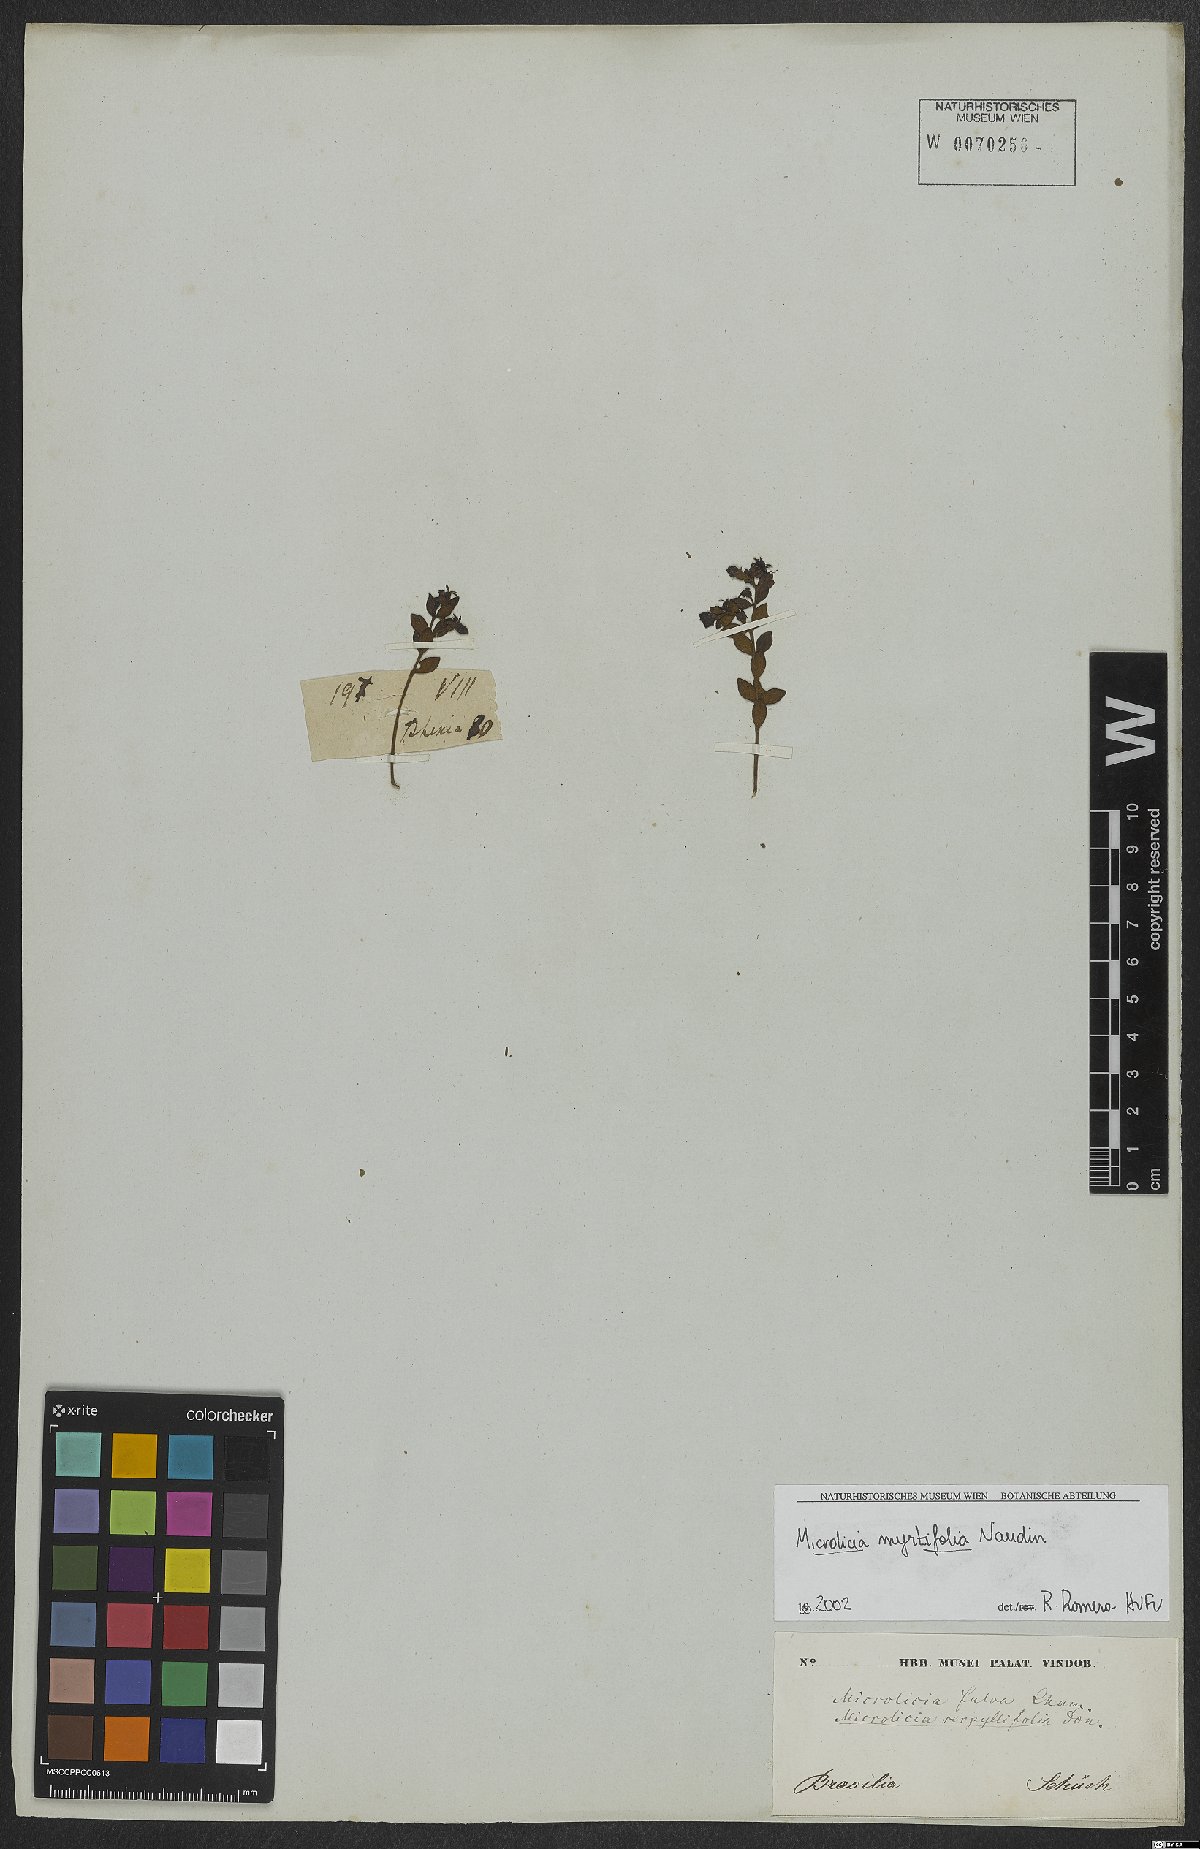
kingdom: Plantae
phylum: Tracheophyta
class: Magnoliopsida
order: Myrtales
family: Melastomataceae
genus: Microlicia
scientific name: Microlicia myrtifolia
